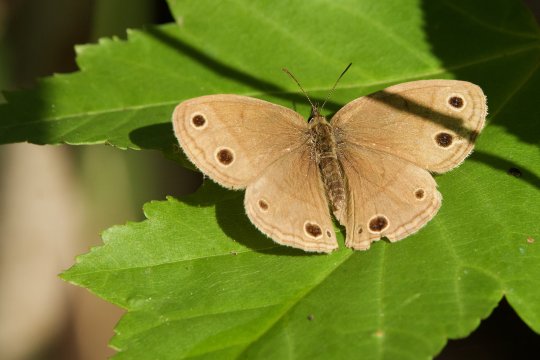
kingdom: Animalia
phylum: Arthropoda
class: Insecta
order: Lepidoptera
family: Nymphalidae
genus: Euptychia
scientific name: Euptychia cymela
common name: Little Wood Satyr
